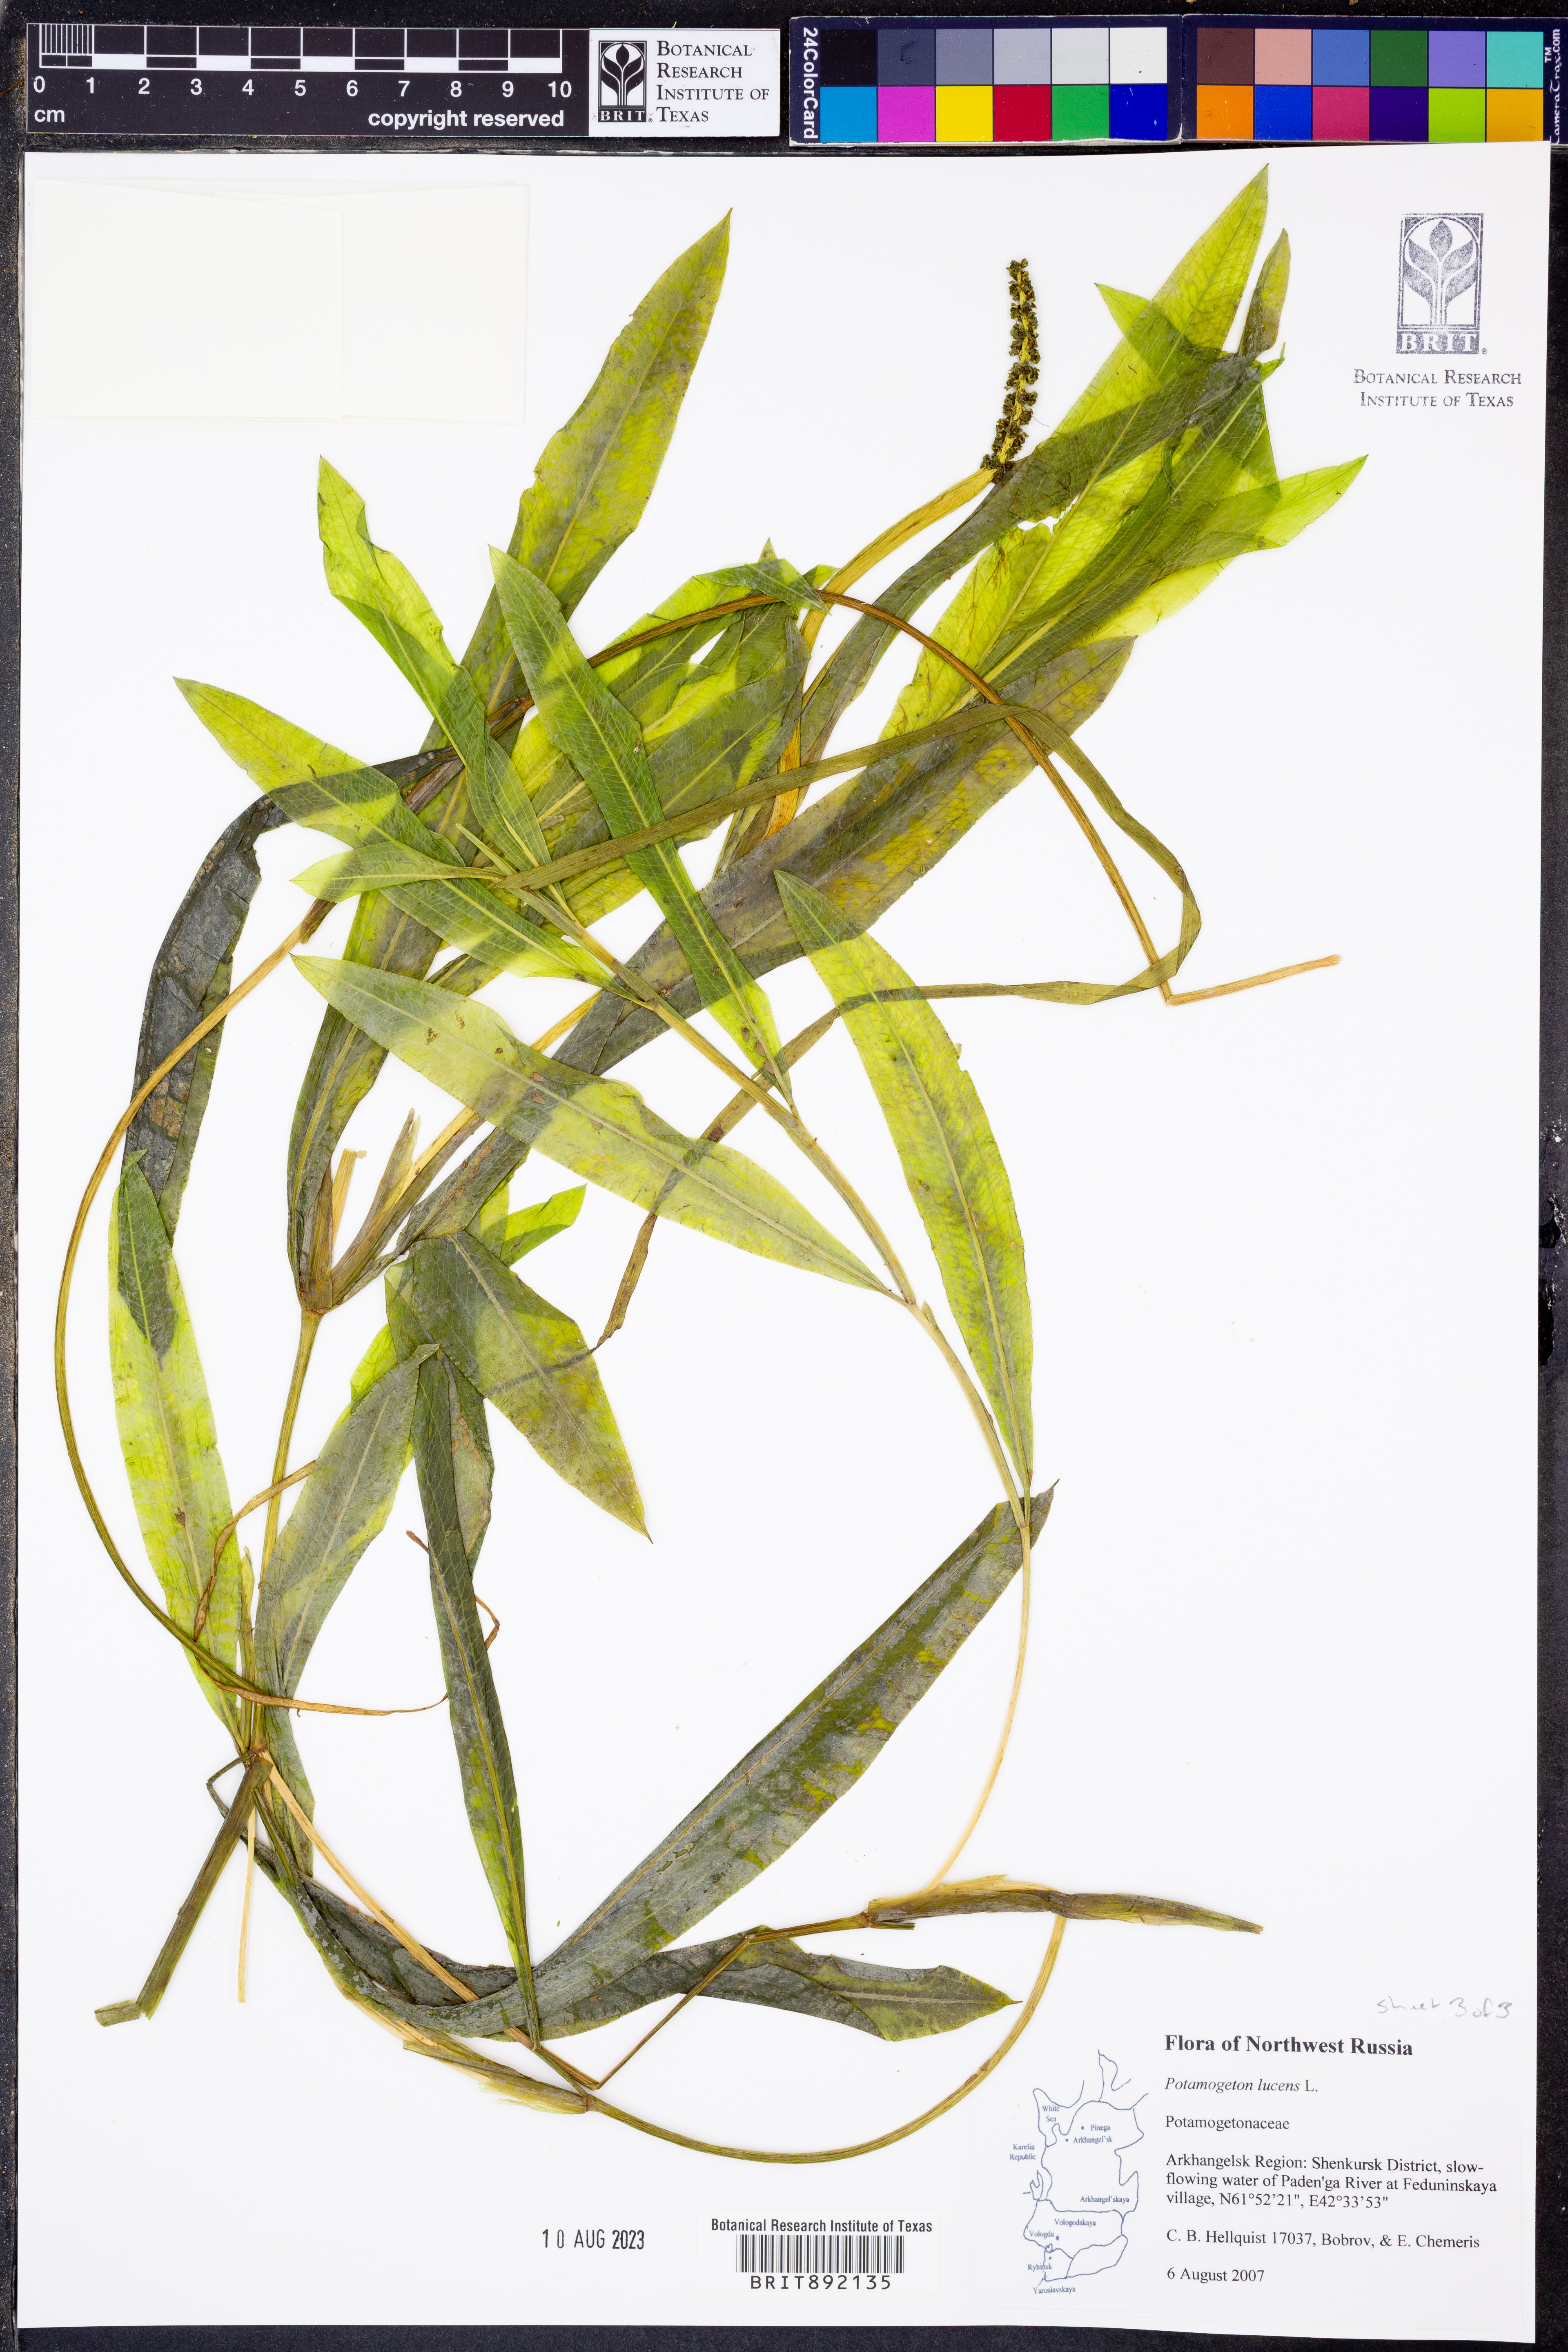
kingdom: Plantae
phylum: Tracheophyta
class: Liliopsida
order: Alismatales
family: Potamogetonaceae
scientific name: Potamogetonaceae
